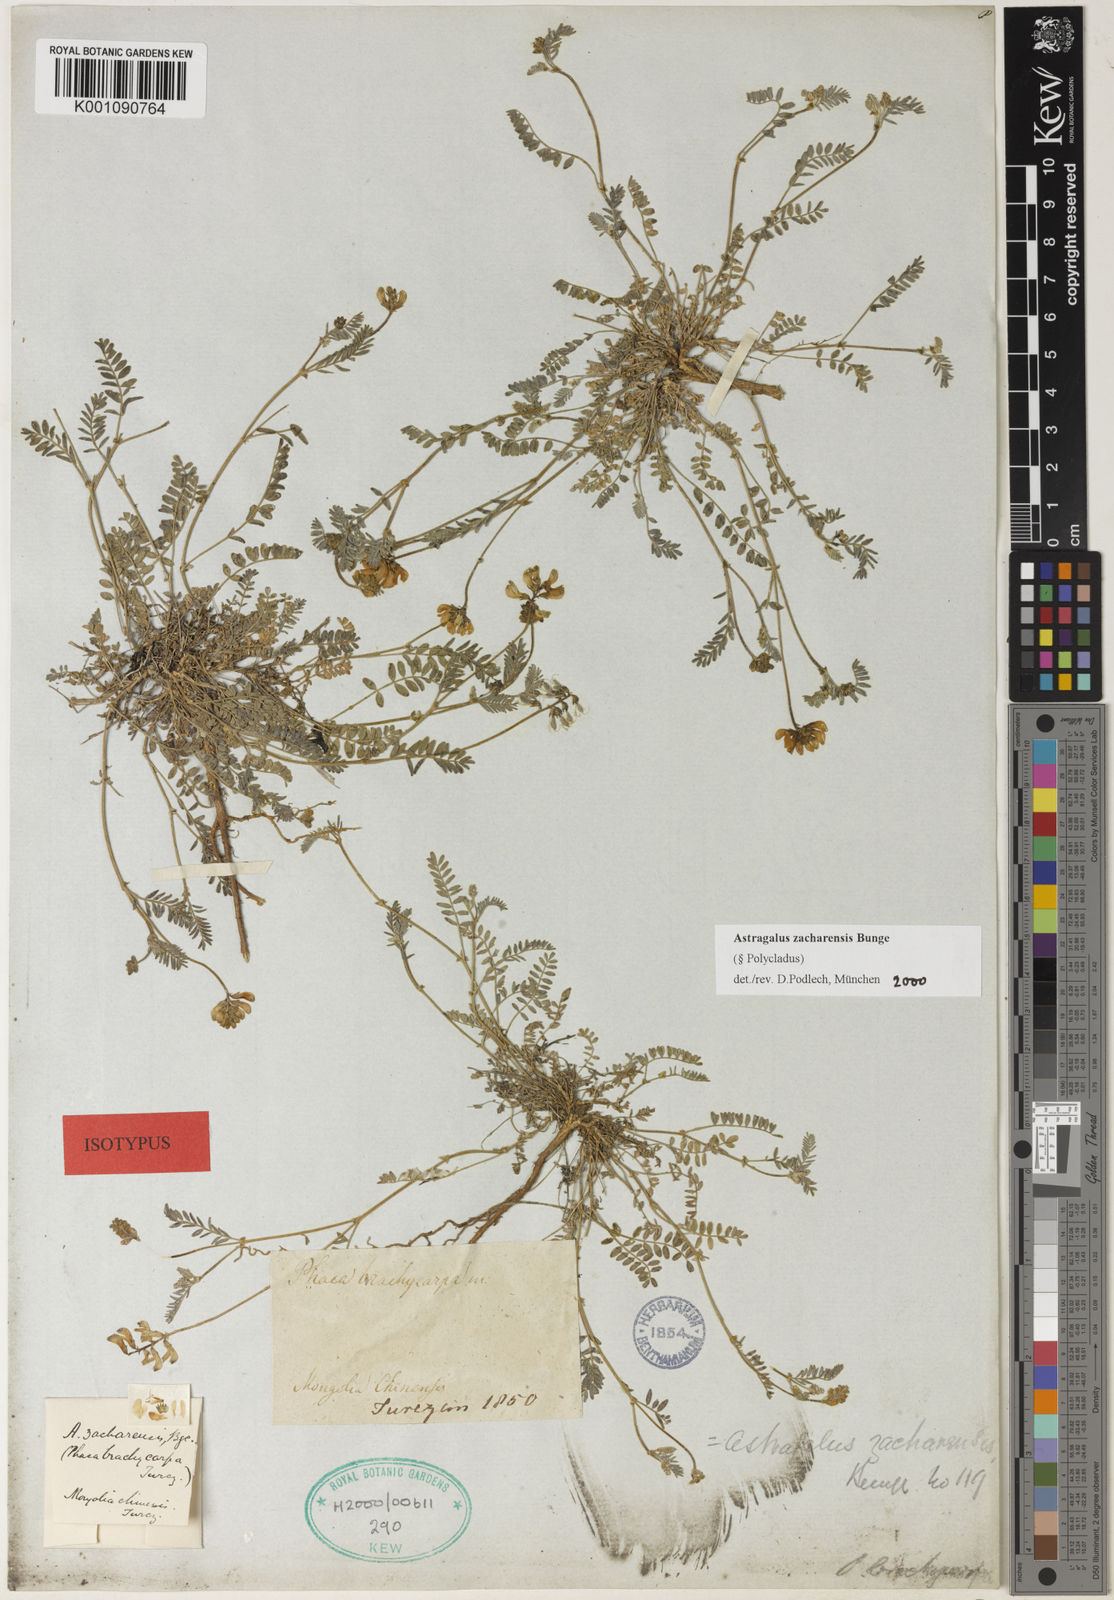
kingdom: Plantae
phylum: Tracheophyta
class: Magnoliopsida
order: Fabales
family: Fabaceae
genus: Astragalus
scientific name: Astragalus
